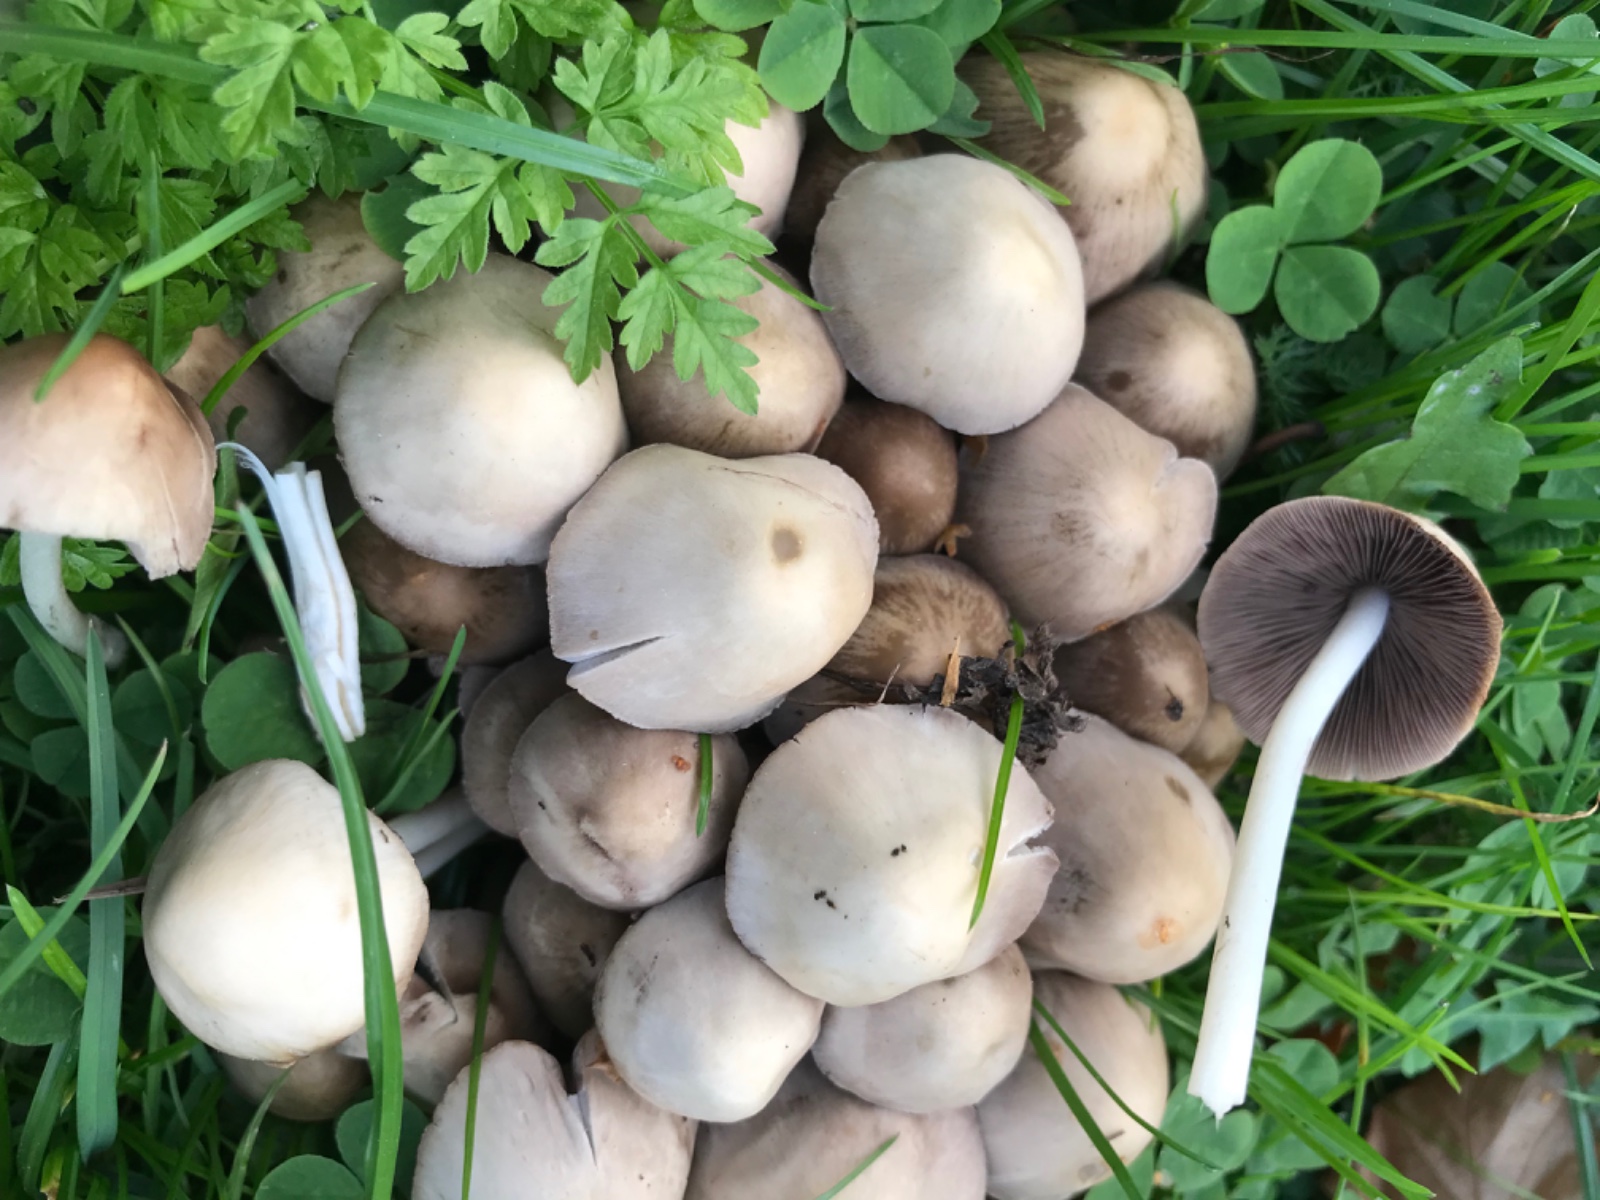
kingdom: Fungi
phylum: Basidiomycota
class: Agaricomycetes
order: Agaricales
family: Psathyrellaceae
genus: Britzelmayria
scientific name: Britzelmayria multipedata
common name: knippe-mørkhat
